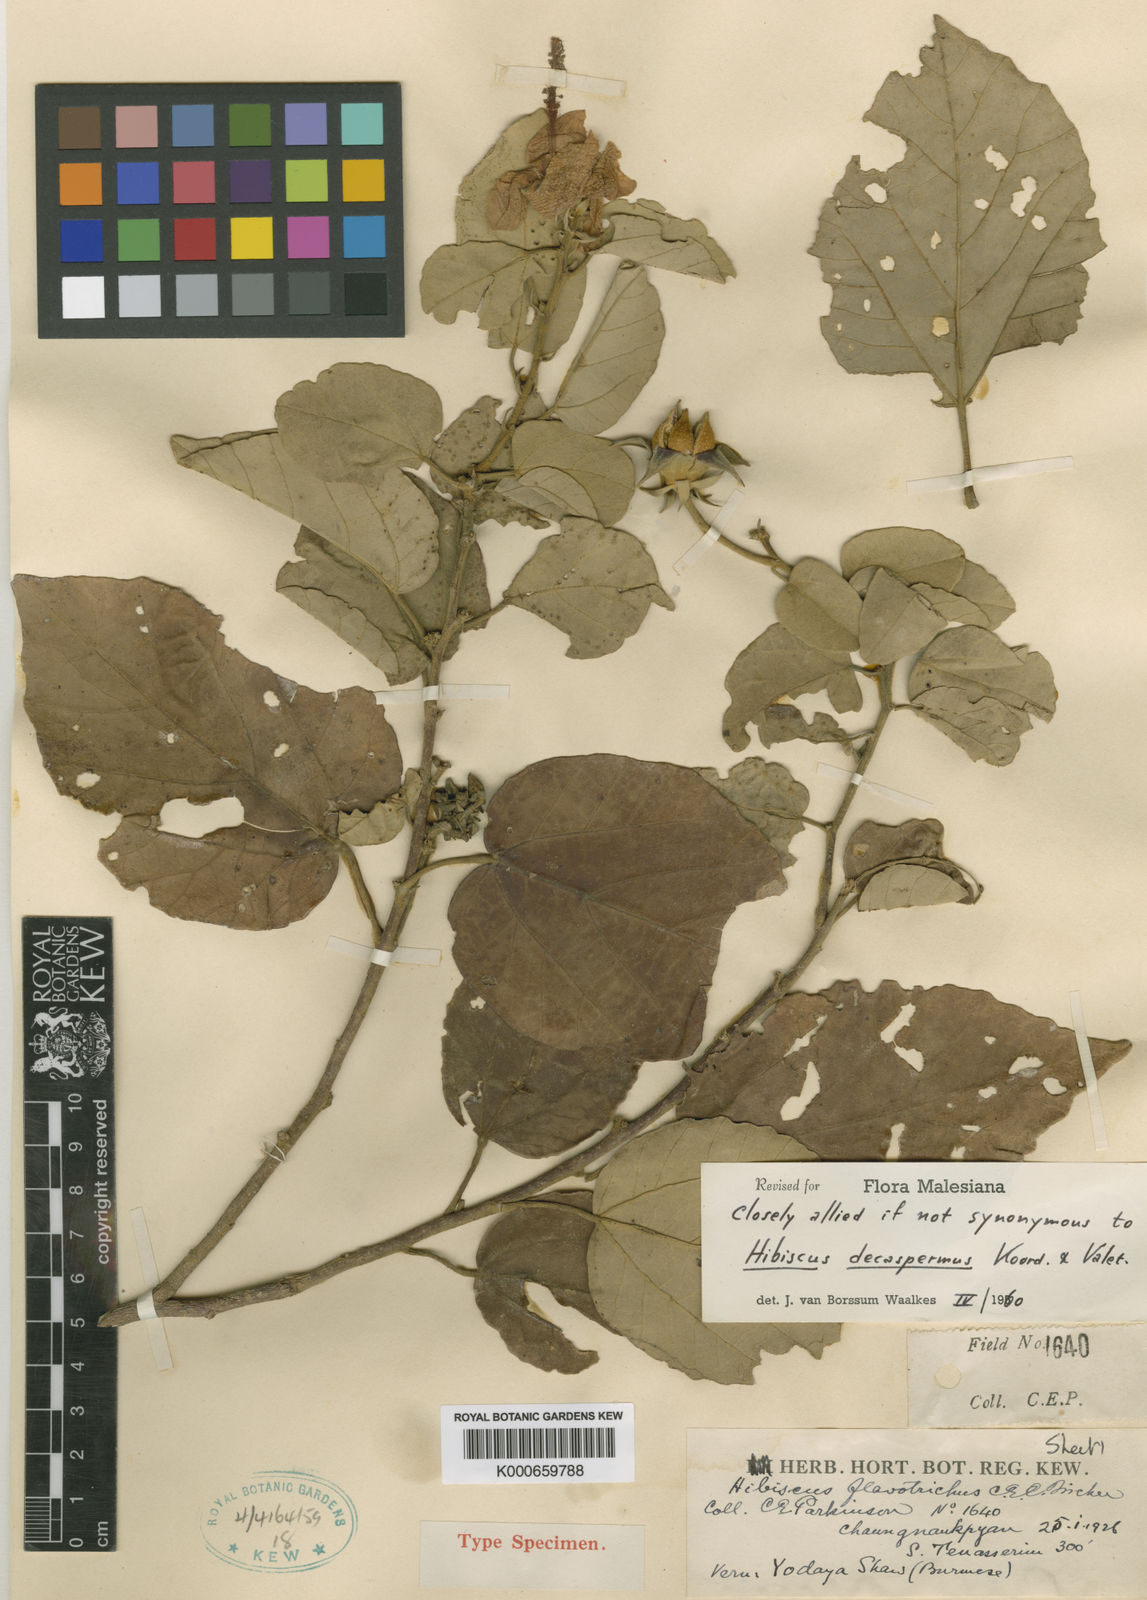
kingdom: Plantae
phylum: Tracheophyta
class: Magnoliopsida
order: Malvales
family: Malvaceae
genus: Hibiscus
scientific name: Hibiscus decaspermus
